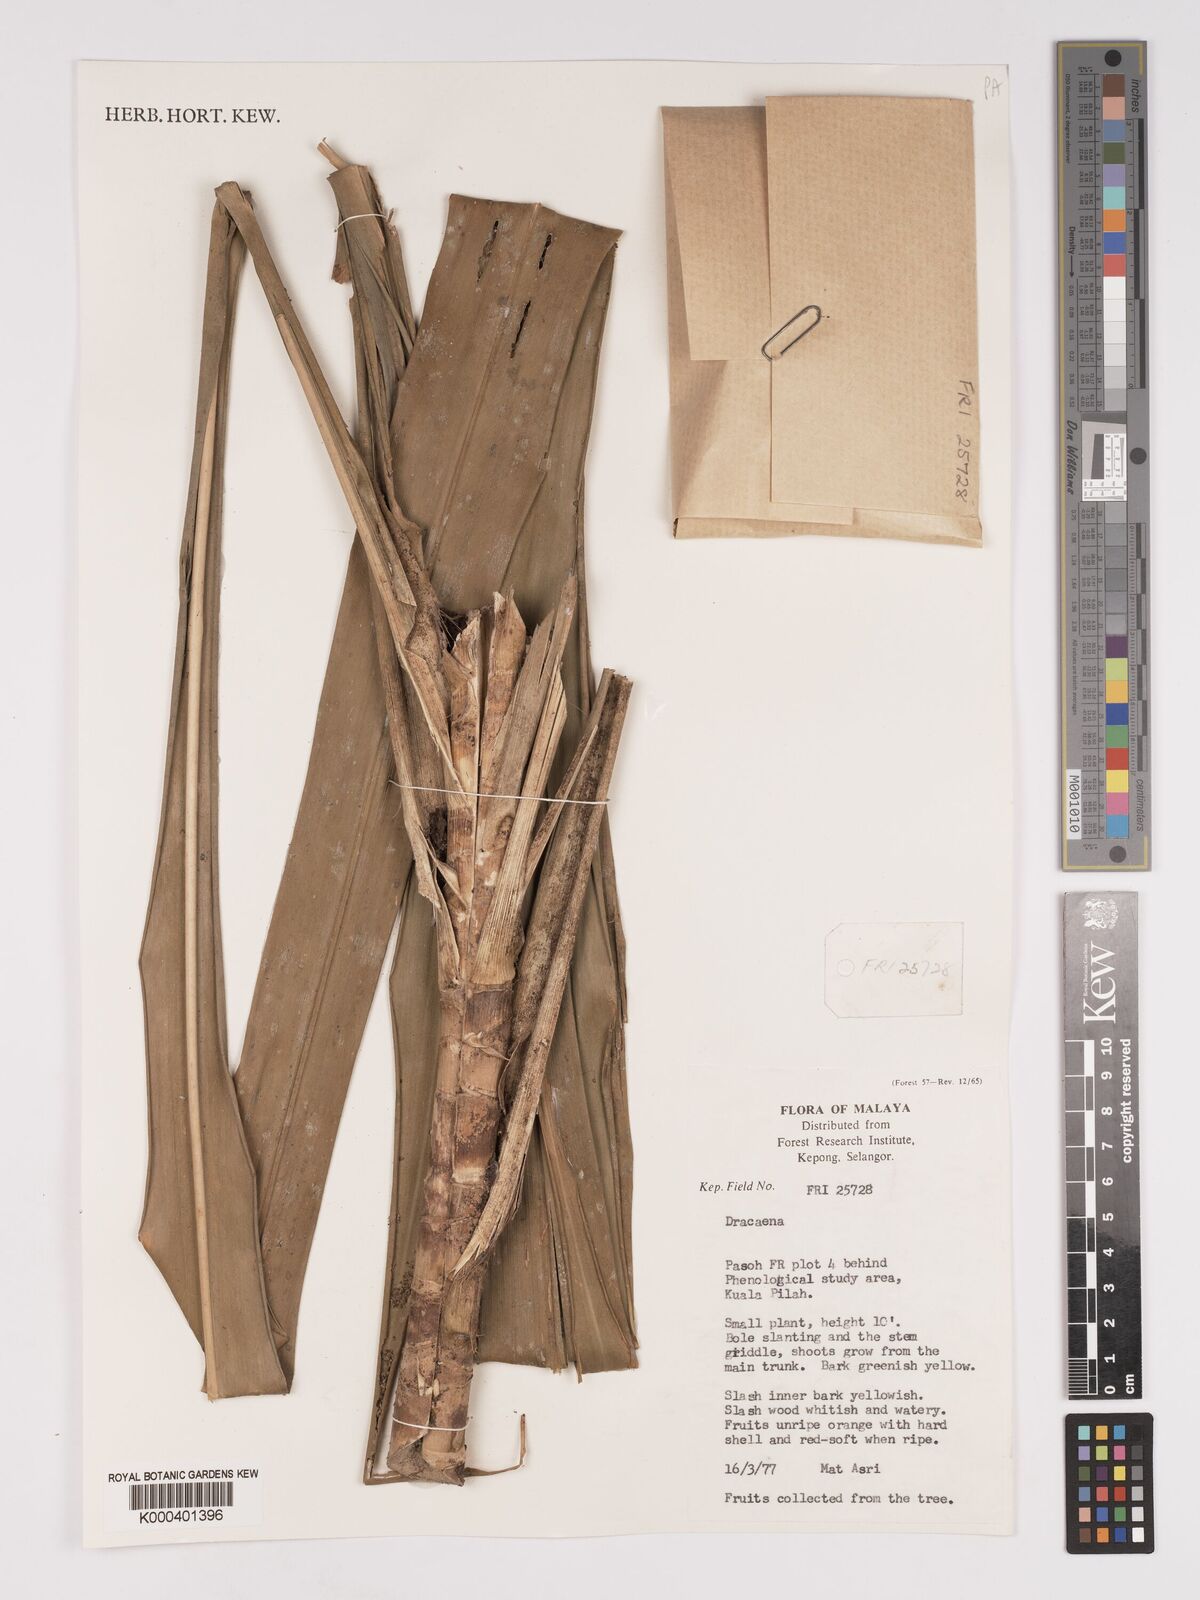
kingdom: Plantae
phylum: Tracheophyta
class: Liliopsida
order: Asparagales
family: Asparagaceae
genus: Dracaena
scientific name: Dracaena
